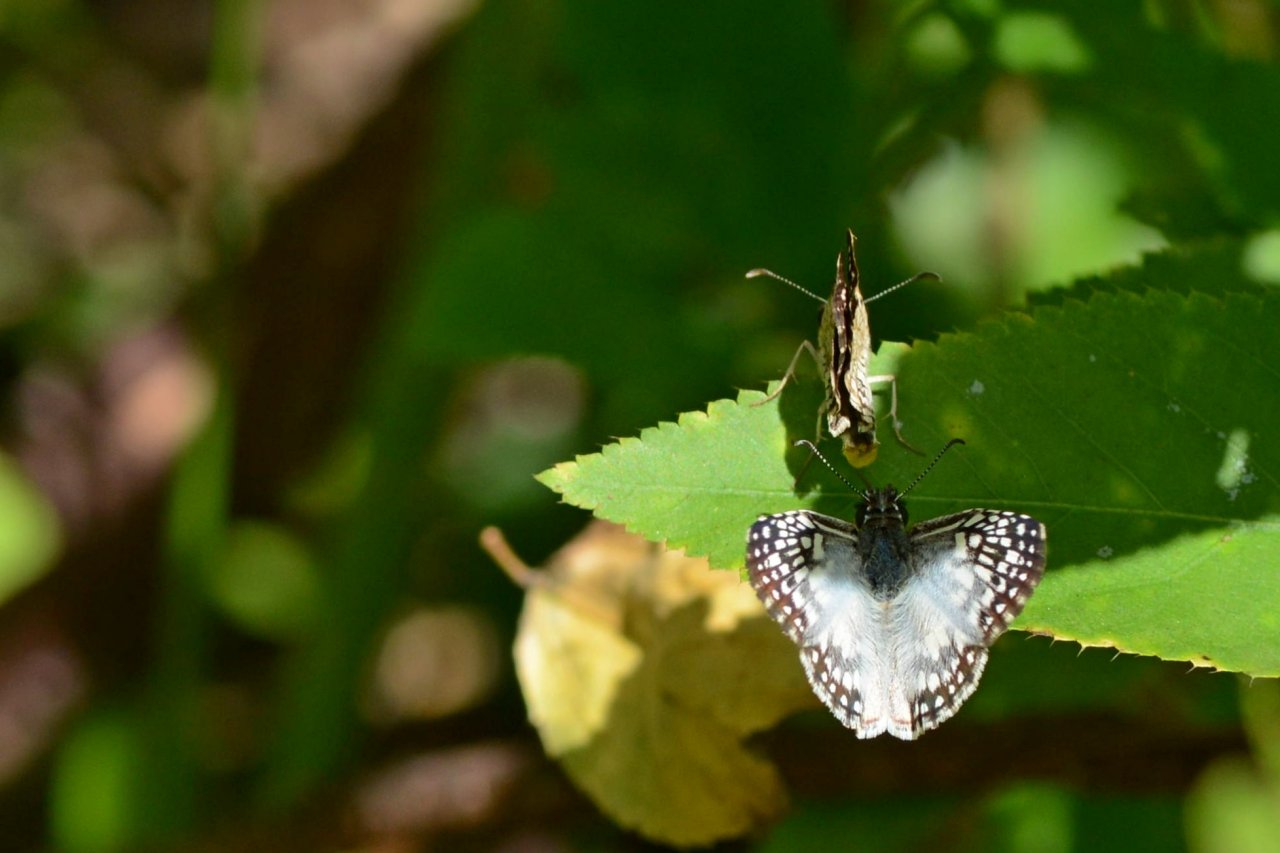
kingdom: Animalia
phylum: Arthropoda
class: Insecta
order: Lepidoptera
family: Hesperiidae
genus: Pyrgus
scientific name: Pyrgus oileus
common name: Tropical Checkered-Skipper
